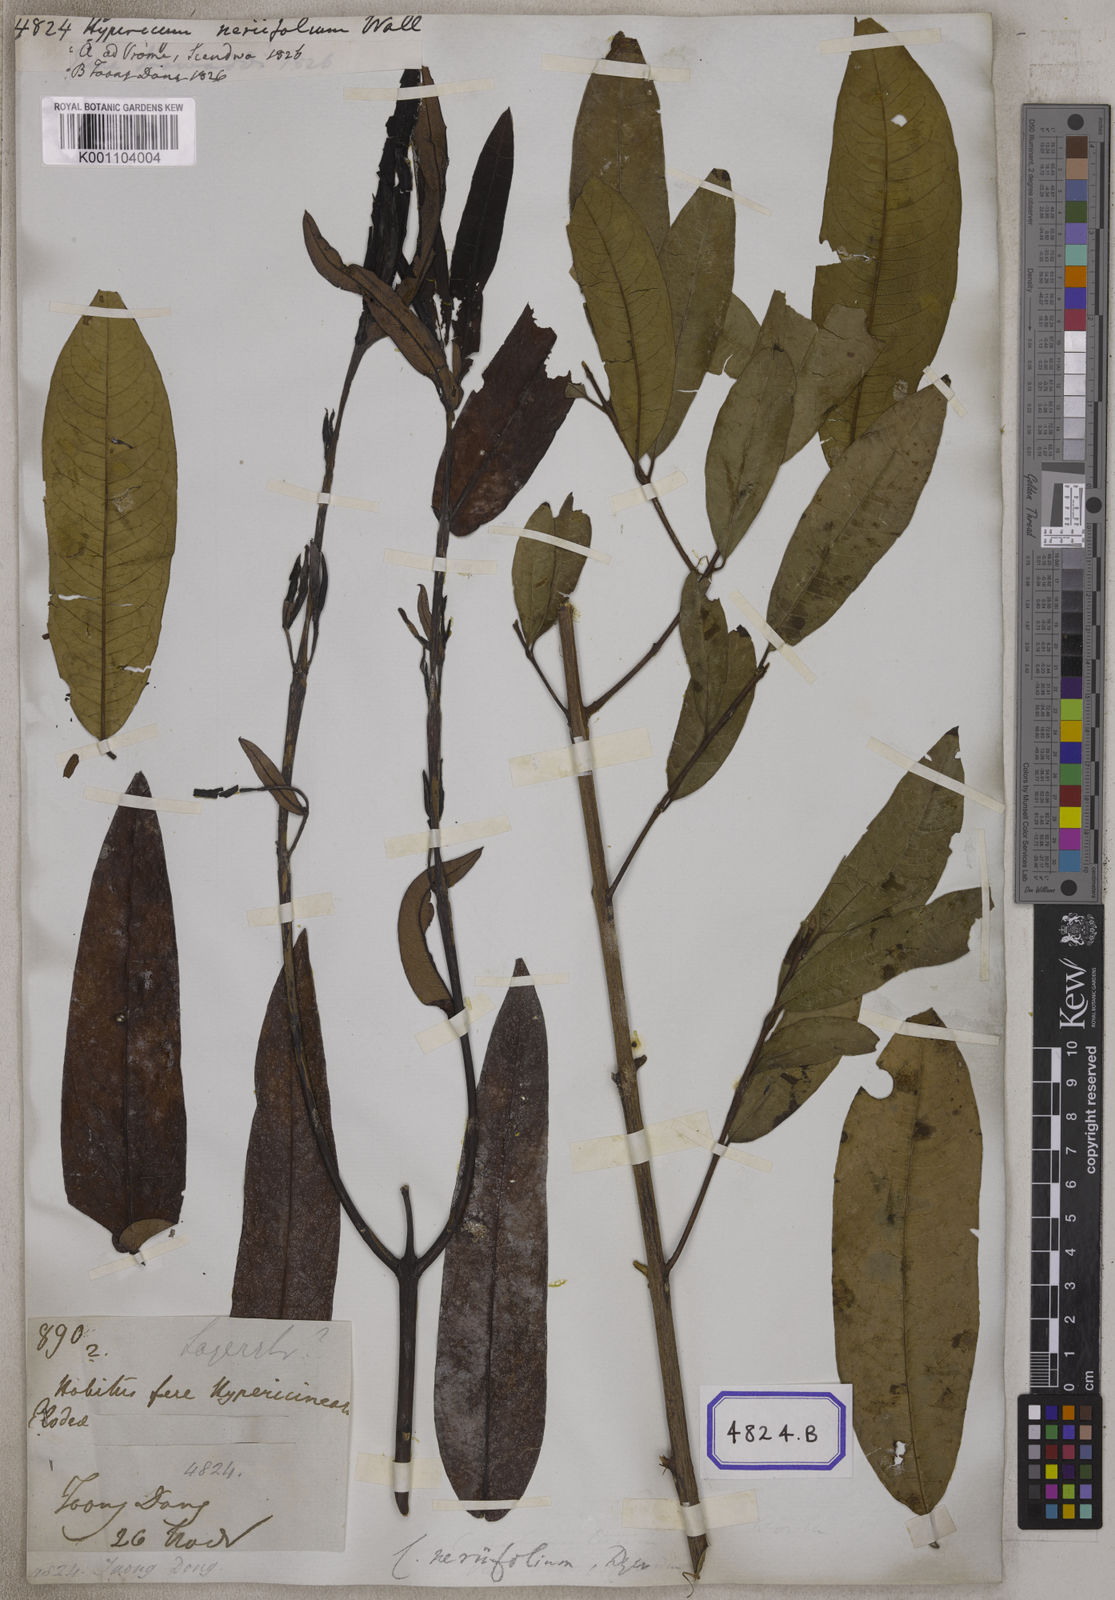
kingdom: Plantae
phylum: Tracheophyta
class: Magnoliopsida
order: Malpighiales
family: Hypericaceae
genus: Cratoxylum
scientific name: Cratoxylum neriifolium
